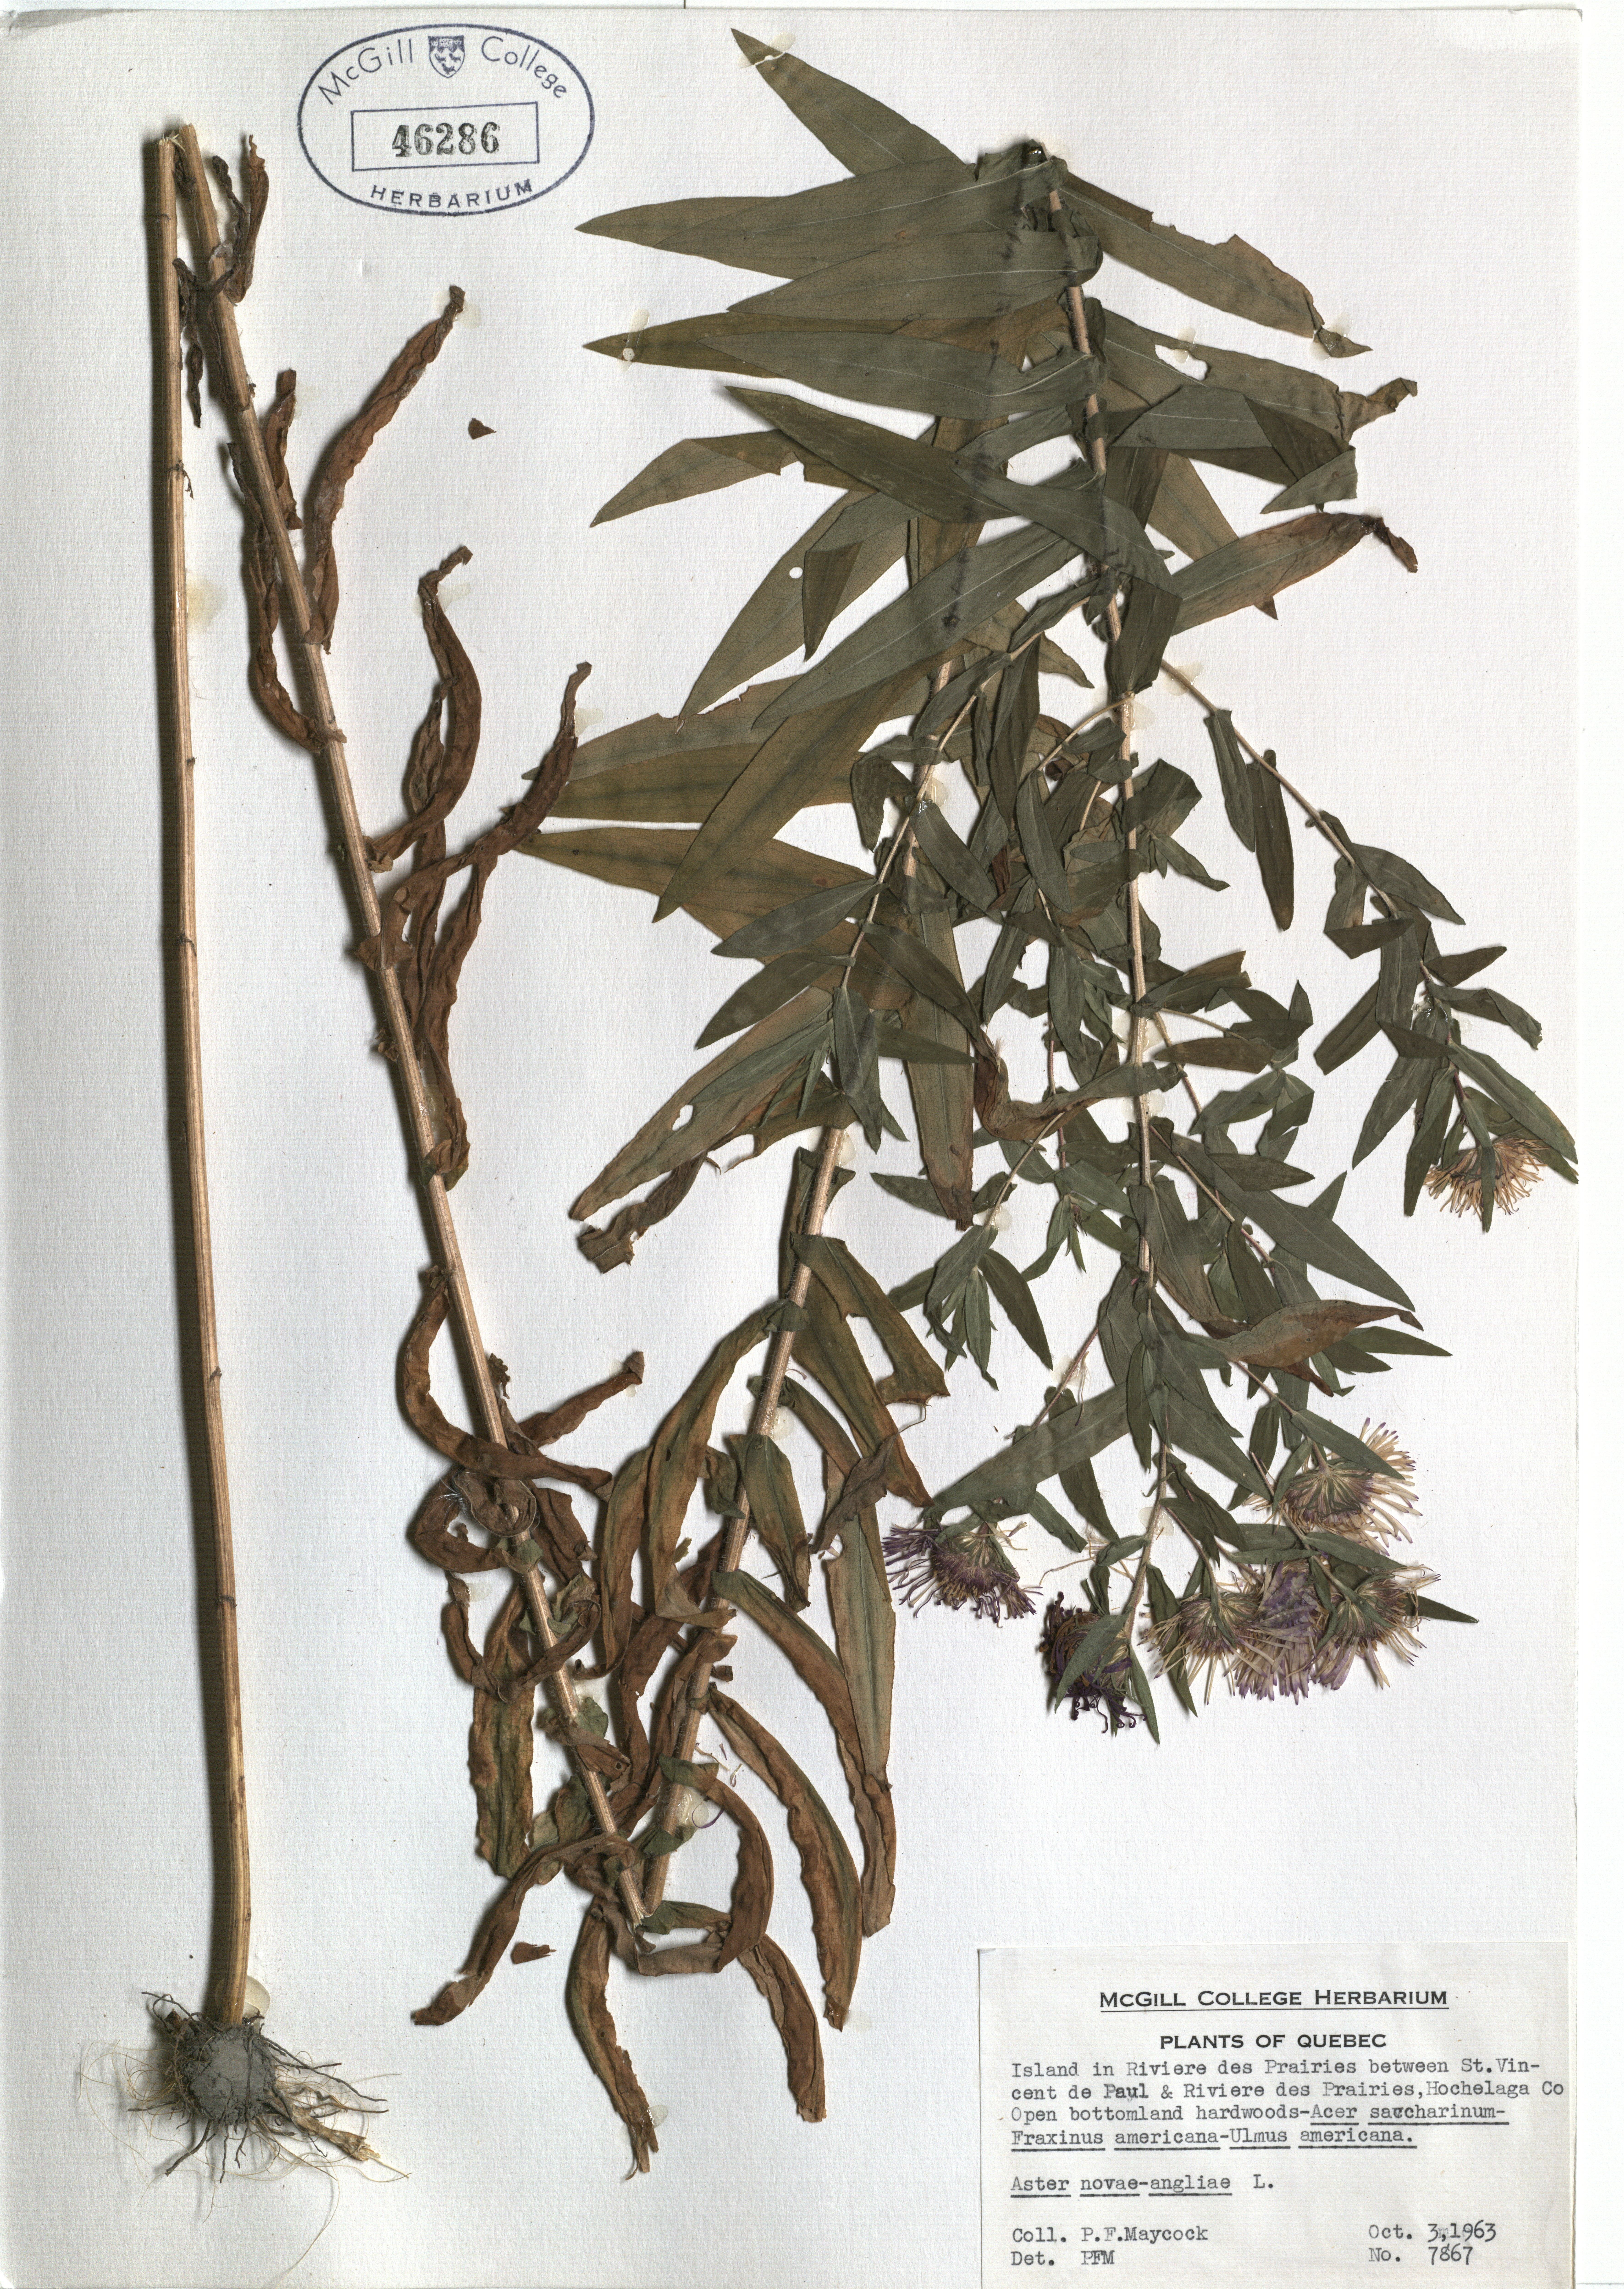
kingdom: Plantae
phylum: Tracheophyta
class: Magnoliopsida
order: Asterales
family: Asteraceae
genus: Symphyotrichum
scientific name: Symphyotrichum novae-angliae
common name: Michaelmas daisy
